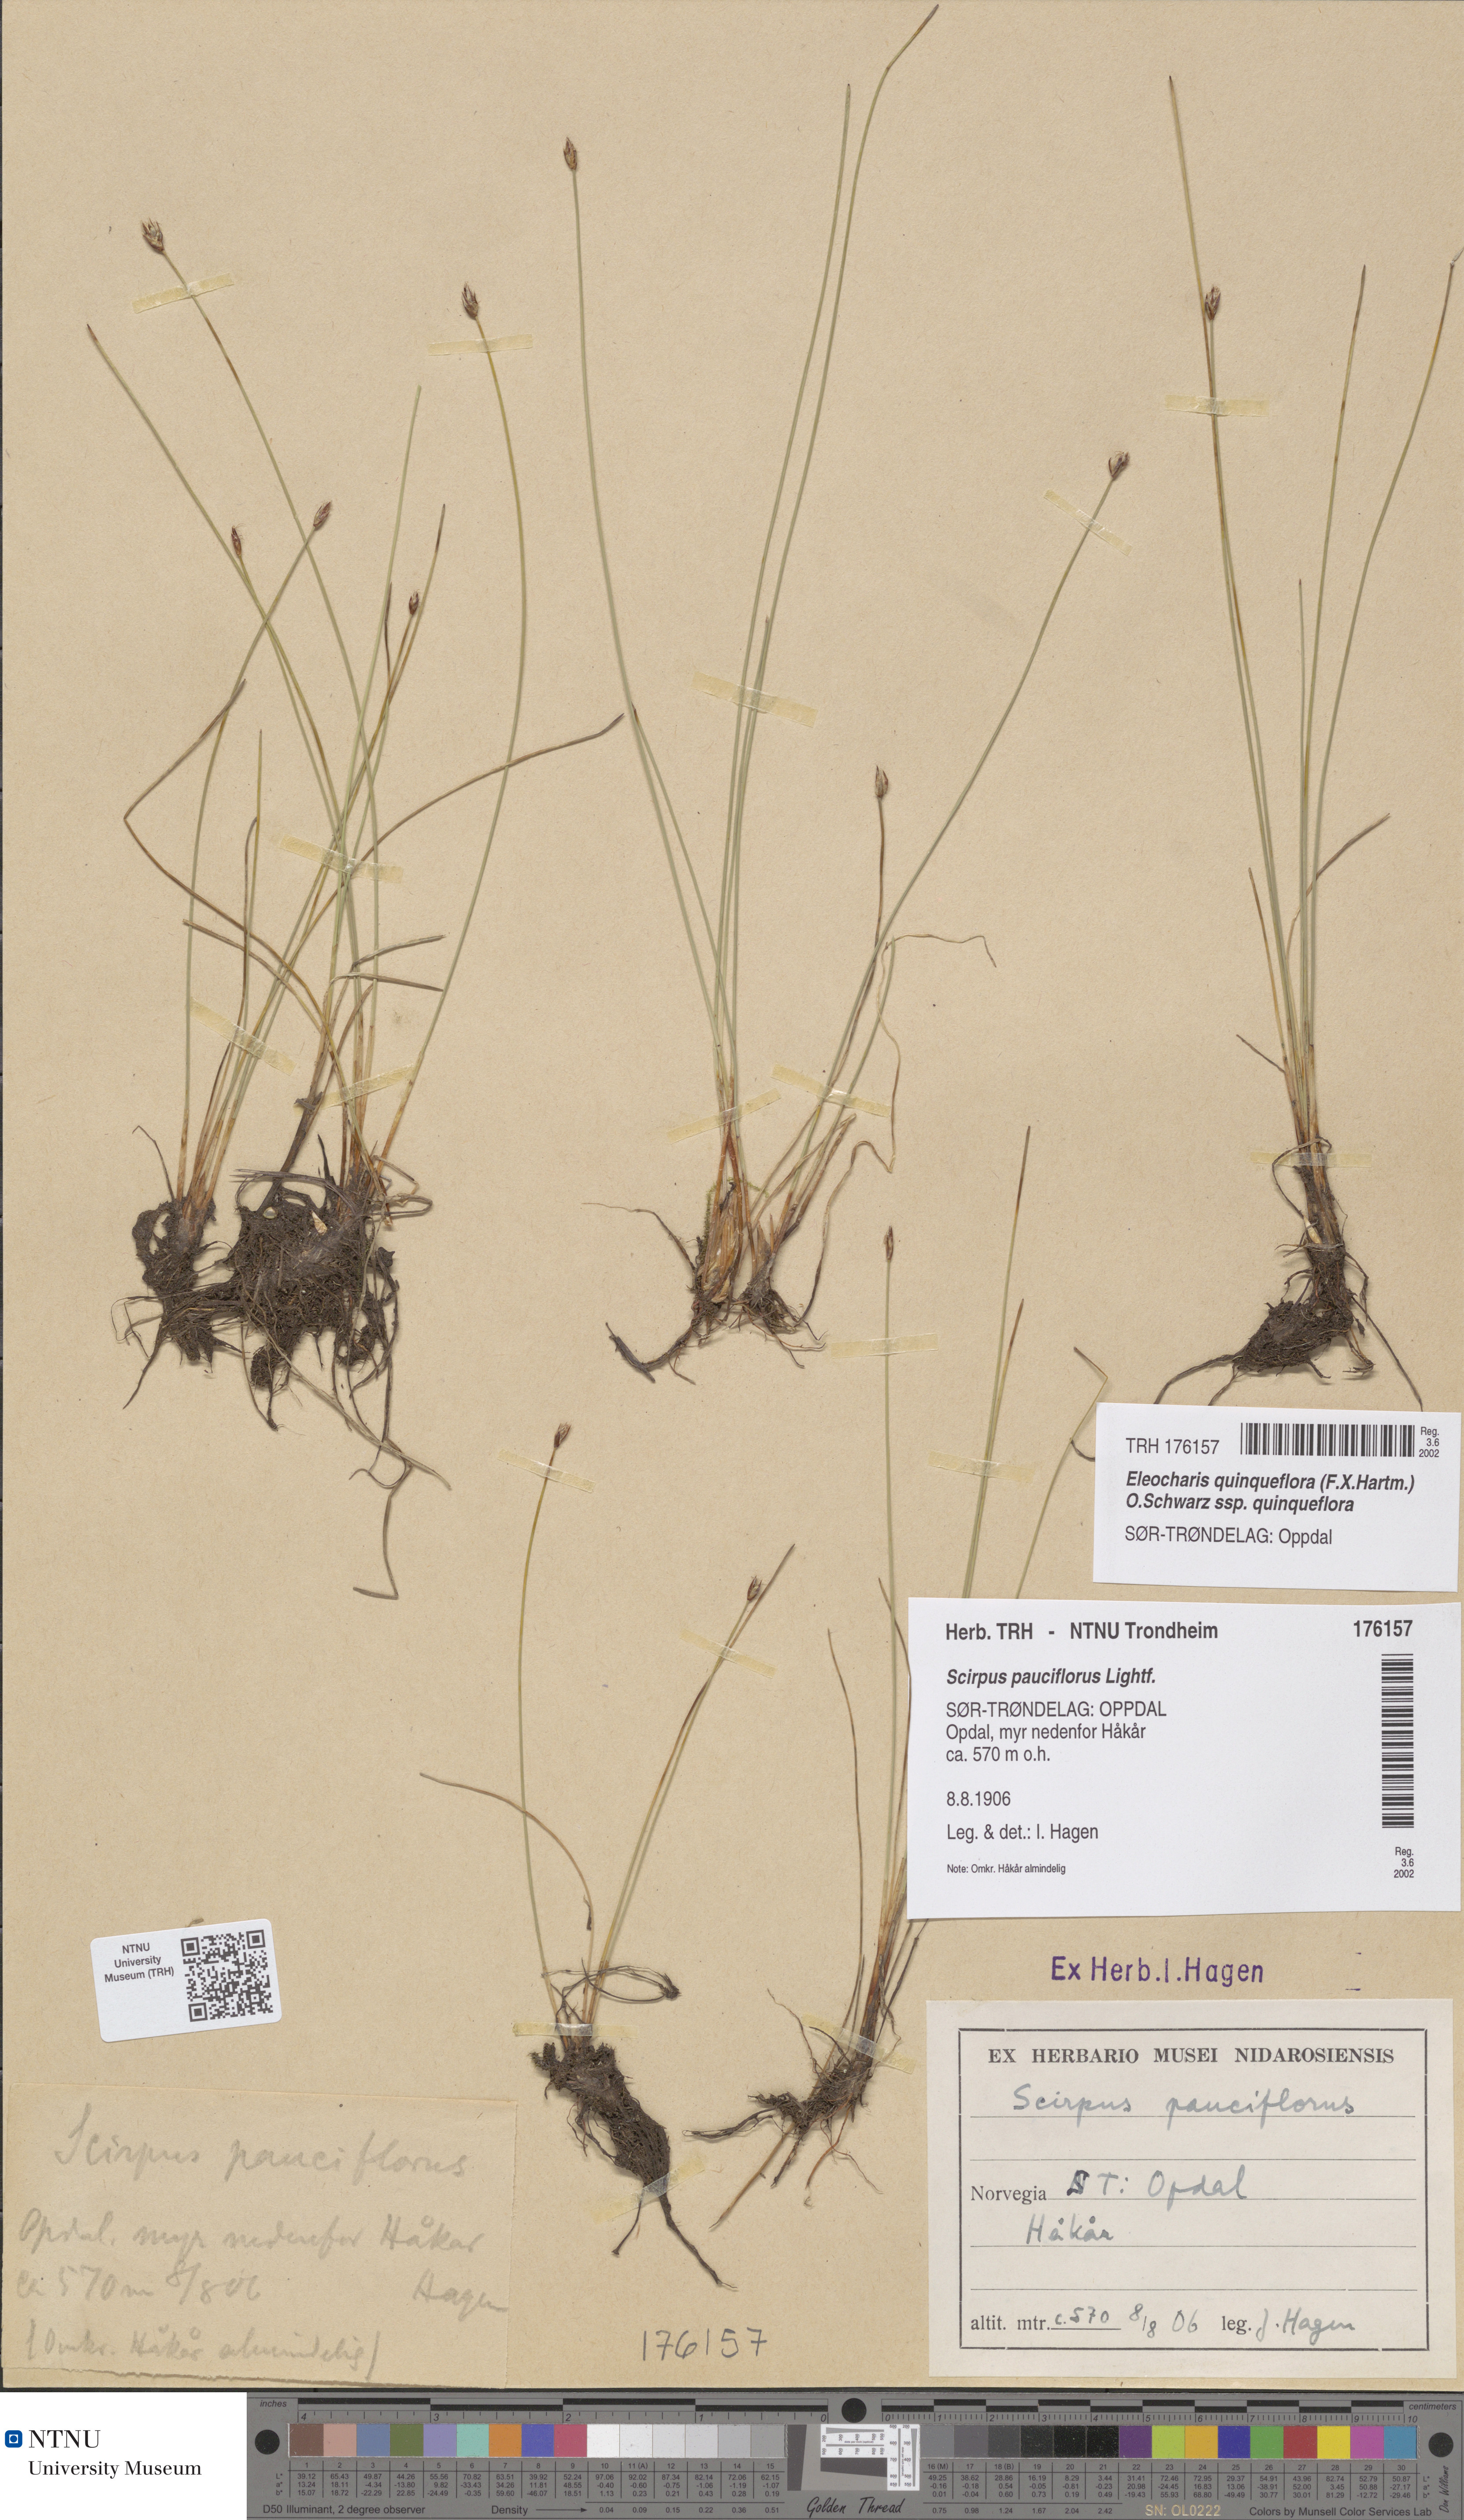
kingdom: Plantae
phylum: Tracheophyta
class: Liliopsida
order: Poales
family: Cyperaceae
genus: Eleocharis
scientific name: Eleocharis quinqueflora
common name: Few-flowered spike-rush
